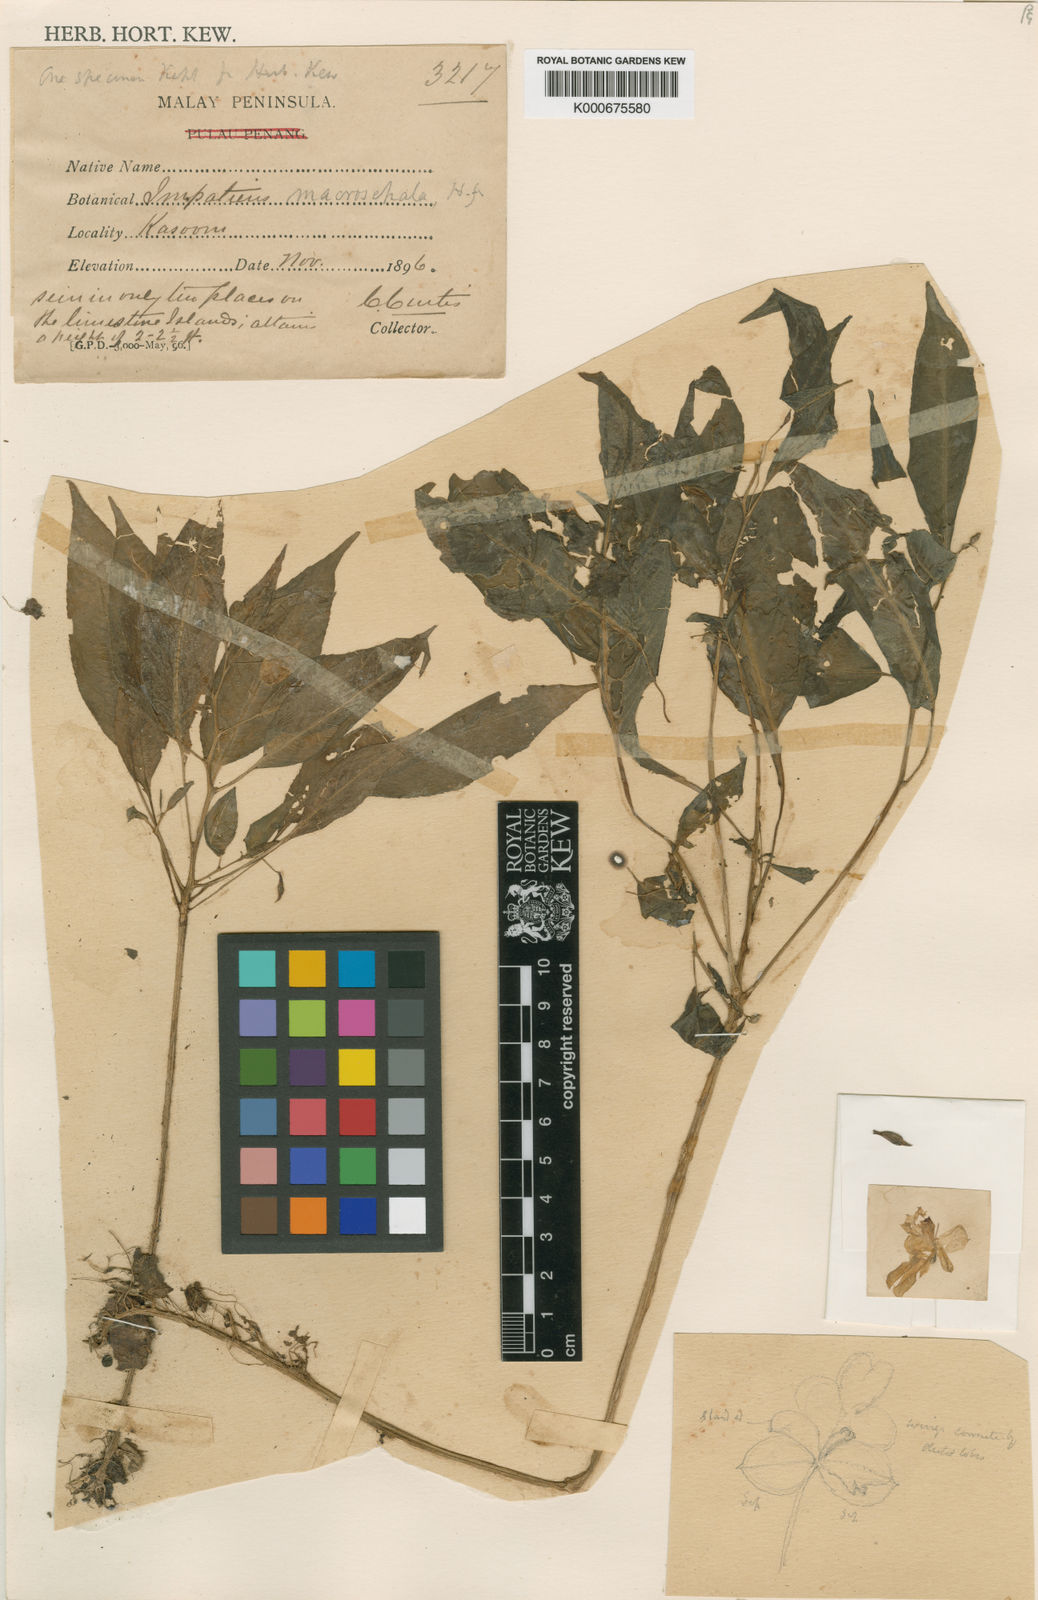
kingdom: Plantae
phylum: Tracheophyta
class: Magnoliopsida
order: Ericales
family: Balsaminaceae
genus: Impatiens
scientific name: Impatiens macrosepala
